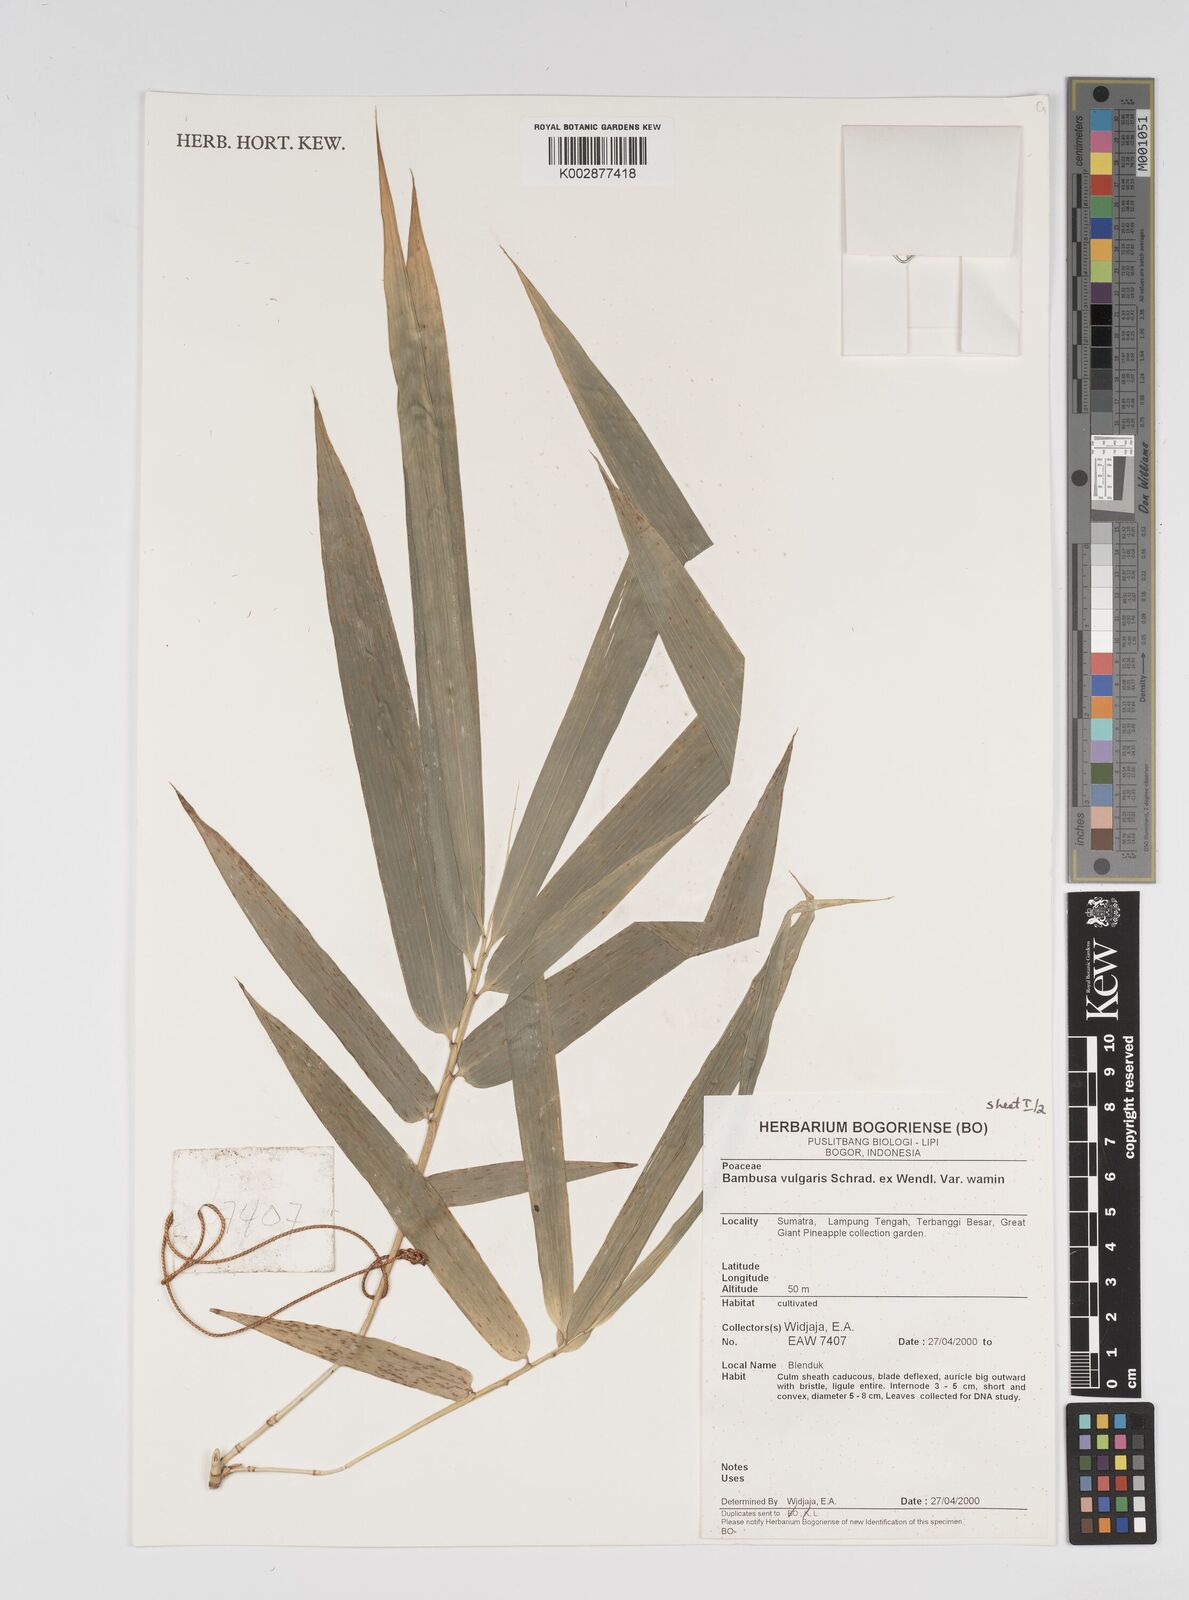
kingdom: Plantae
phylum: Tracheophyta
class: Liliopsida
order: Poales
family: Poaceae
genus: Bambusa
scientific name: Bambusa vulgaris
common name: Common bamboo
